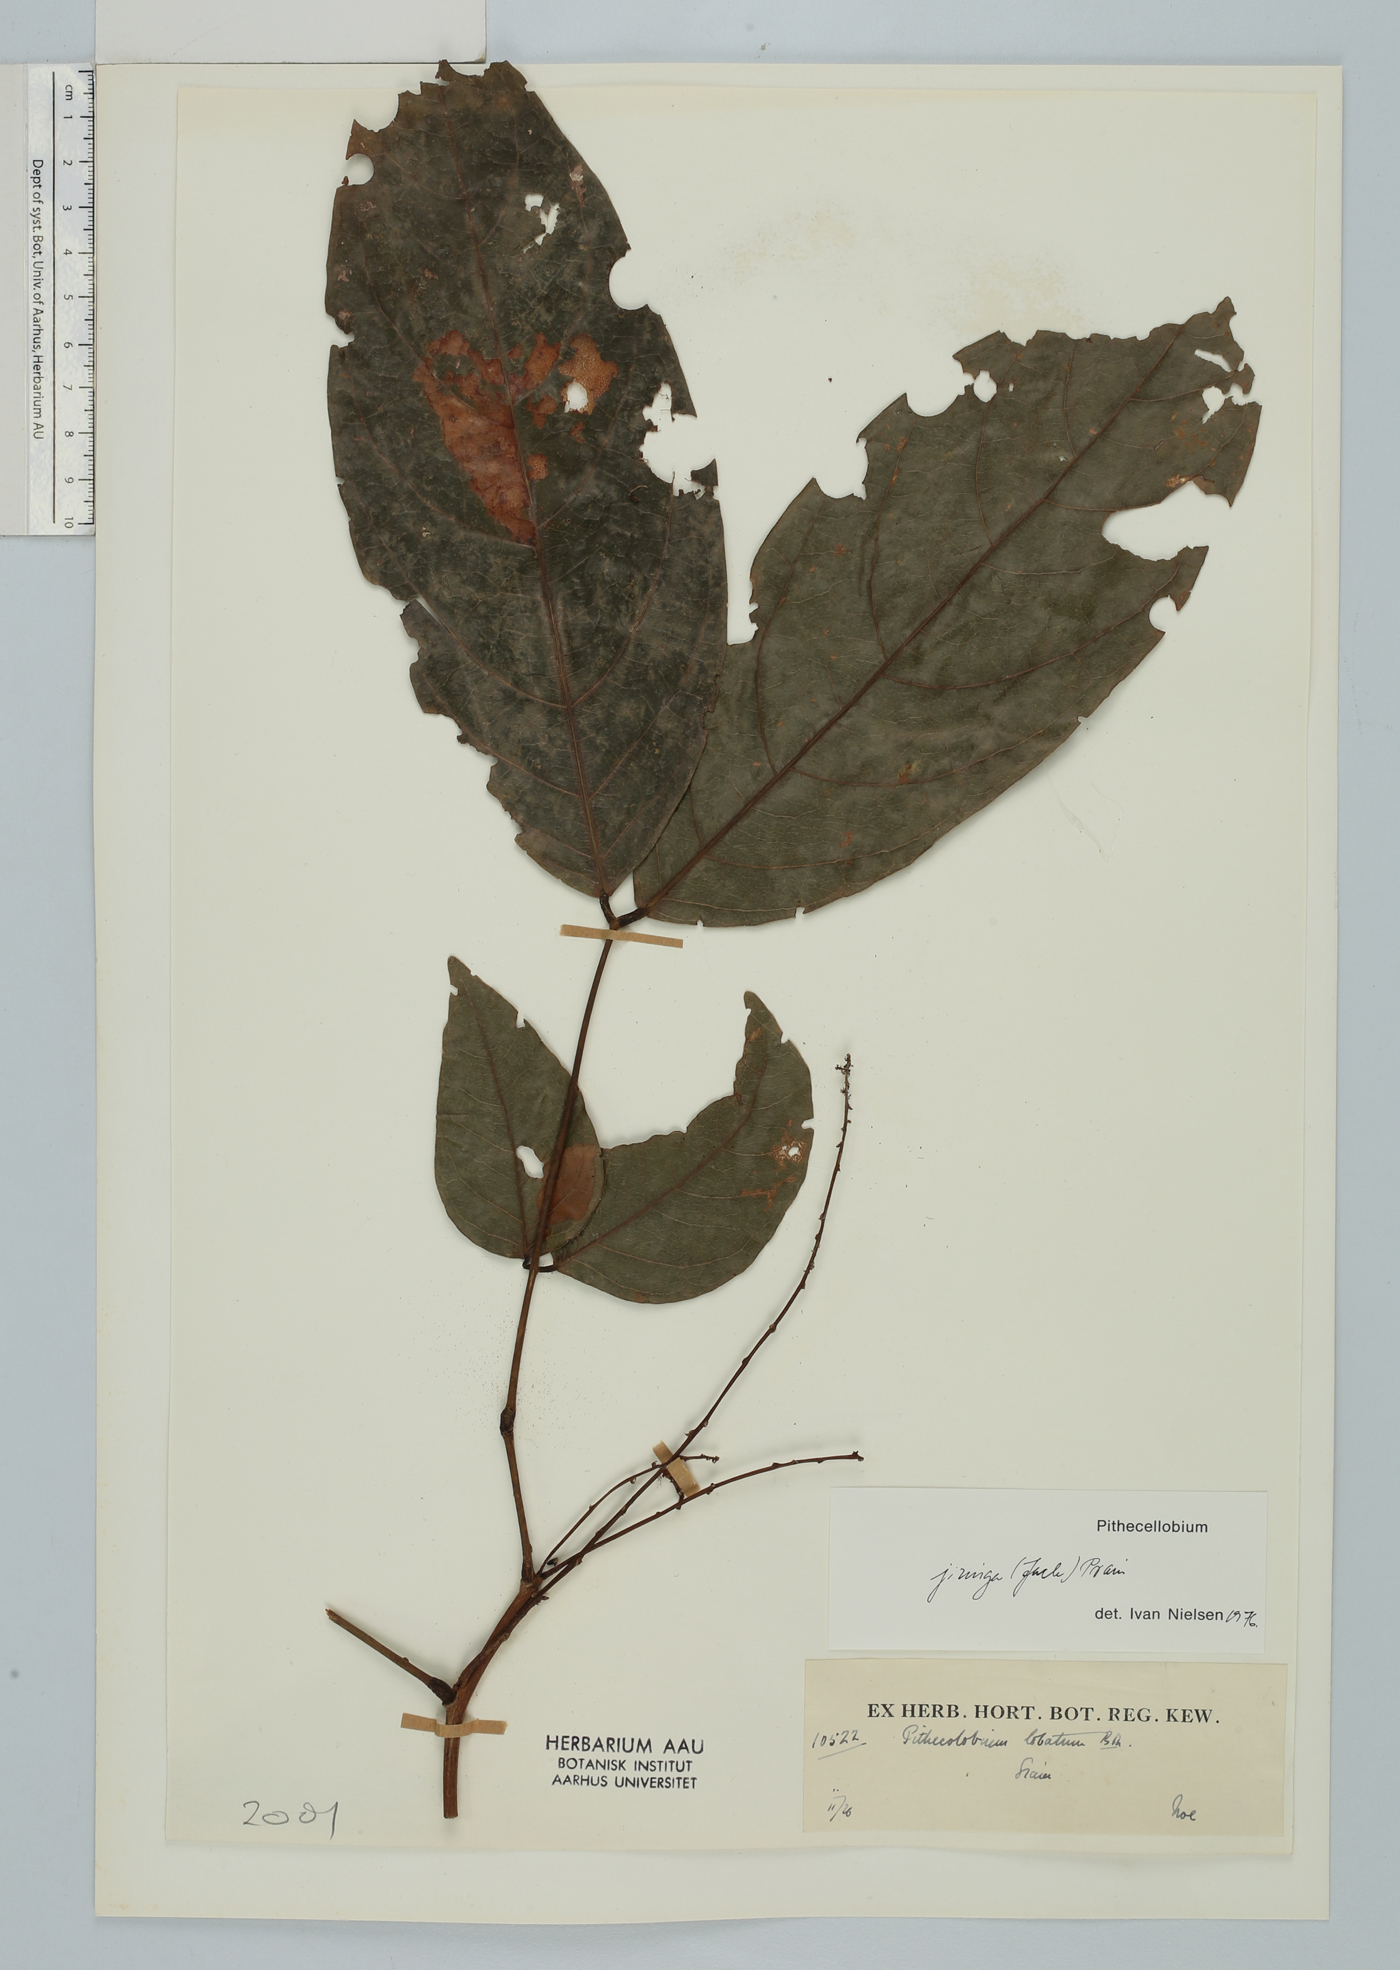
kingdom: Plantae
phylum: Tracheophyta
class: Magnoliopsida
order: Fabales
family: Fabaceae
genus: Archidendron
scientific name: Archidendron jiringa
